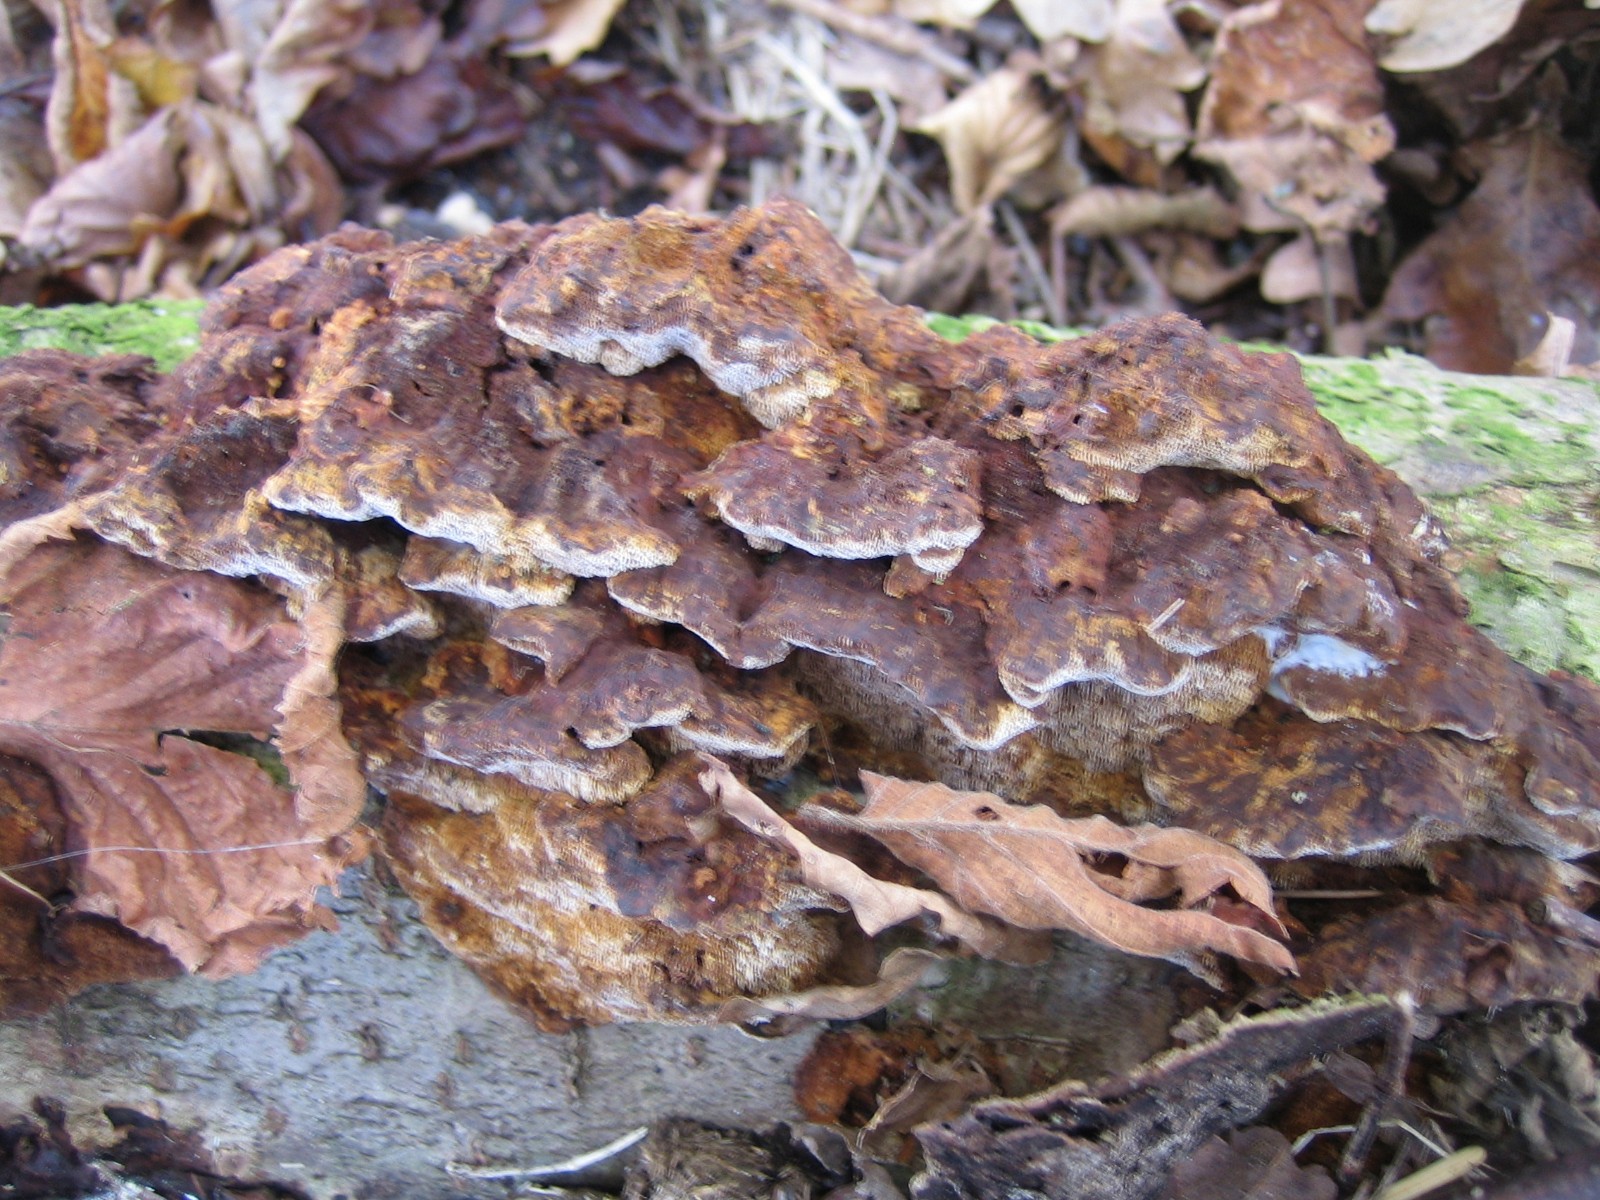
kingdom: Fungi
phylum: Basidiomycota
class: Agaricomycetes
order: Hymenochaetales
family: Hymenochaetaceae
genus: Xanthoporia
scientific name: Xanthoporia radiata
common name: elle-spejlporesvamp
